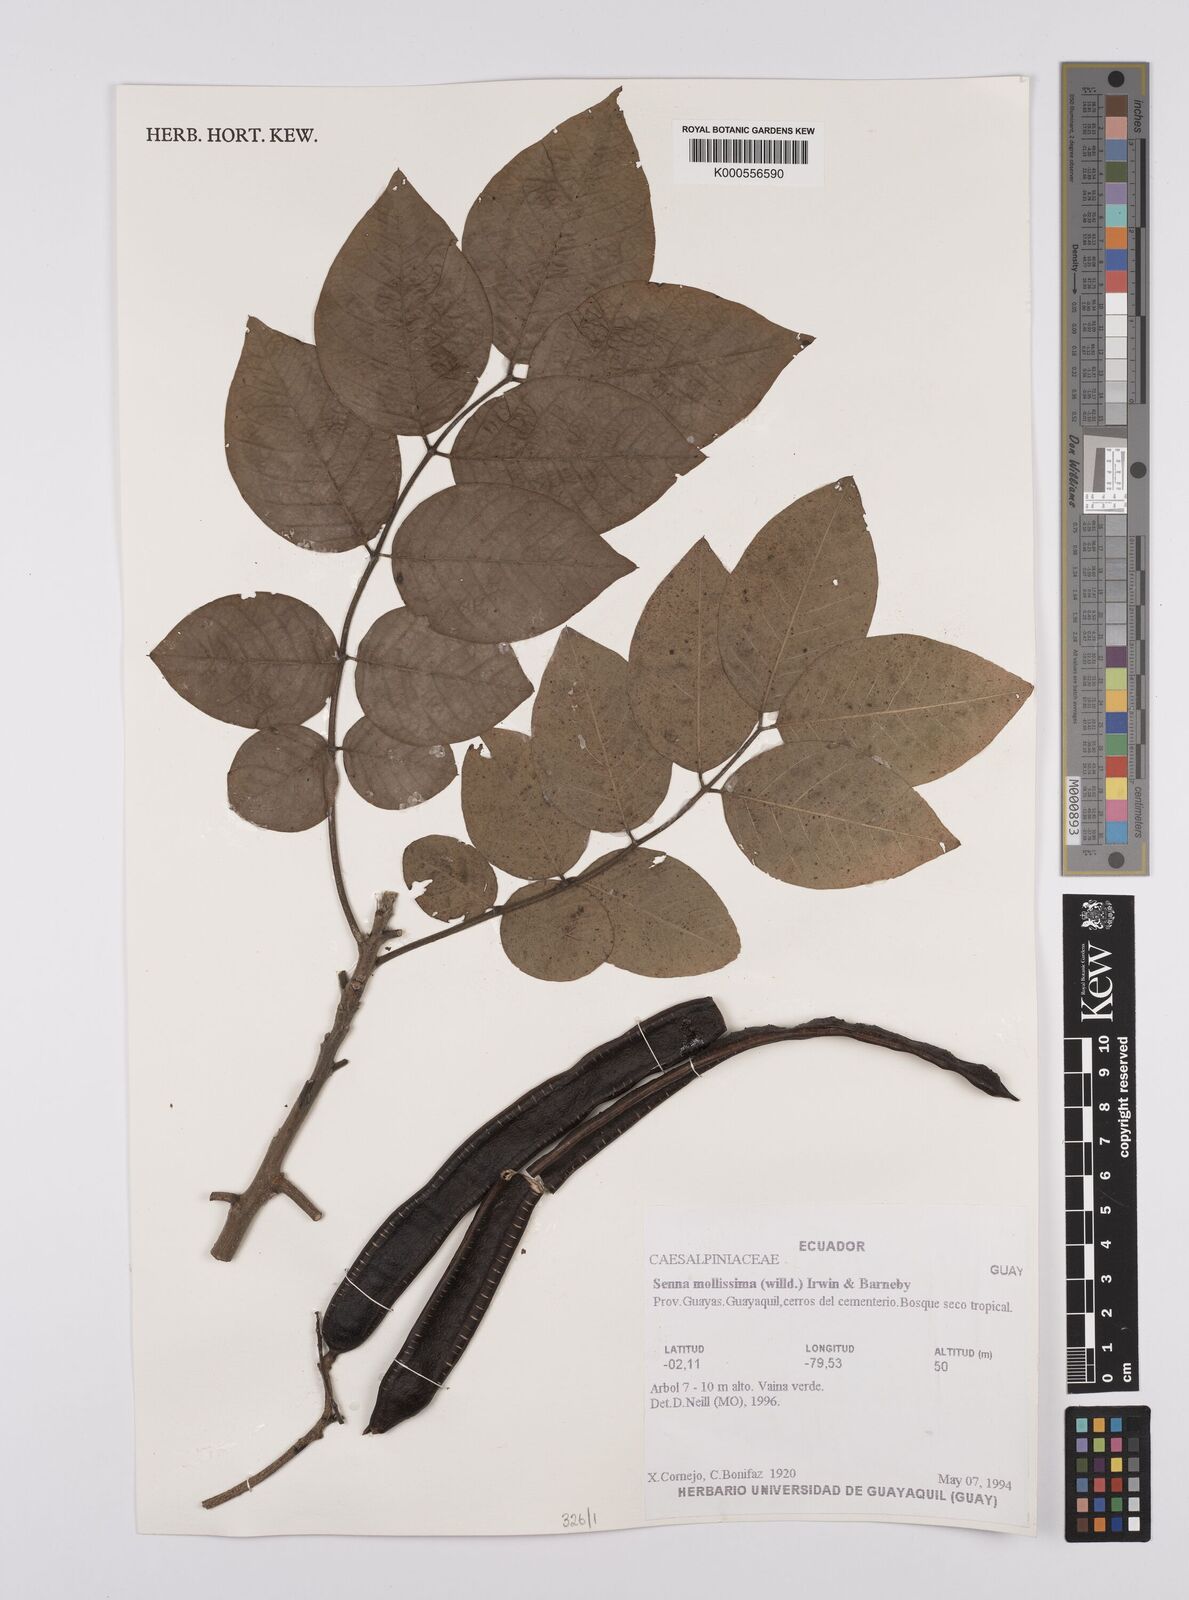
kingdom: Plantae
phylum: Tracheophyta
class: Magnoliopsida
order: Fabales
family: Fabaceae
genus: Senna
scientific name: Senna mollissima
